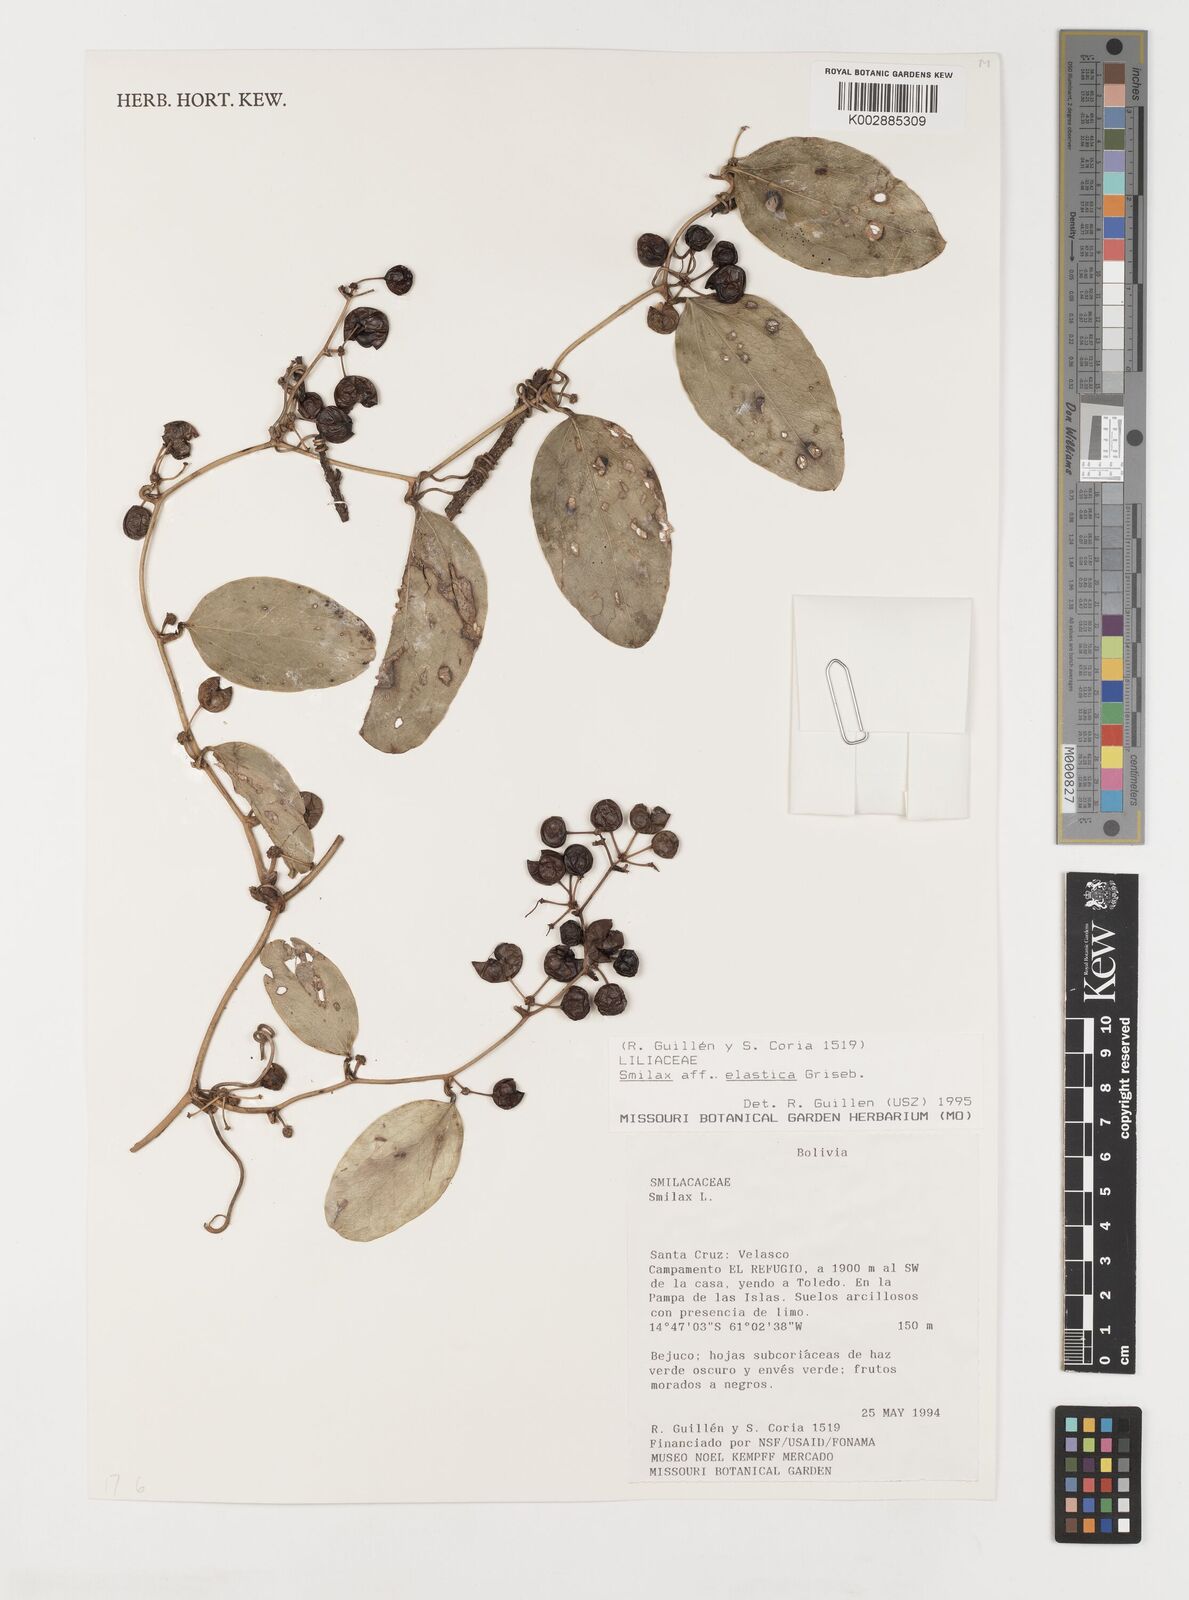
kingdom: Plantae
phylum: Tracheophyta
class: Liliopsida
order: Liliales
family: Smilacaceae
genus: Smilax
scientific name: Smilax elastica
